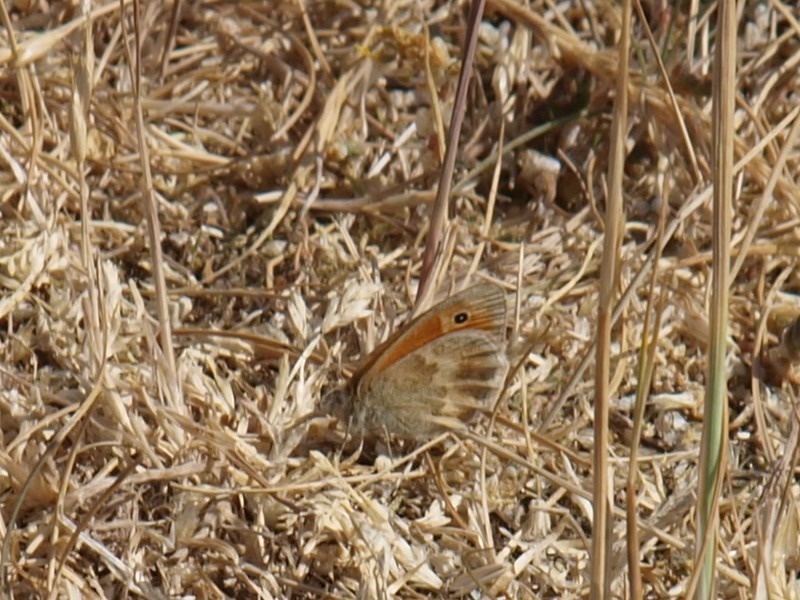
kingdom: Animalia
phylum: Arthropoda
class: Insecta
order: Lepidoptera
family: Nymphalidae
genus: Coenonympha
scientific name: Coenonympha pamphilus
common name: Okkergul randøje
